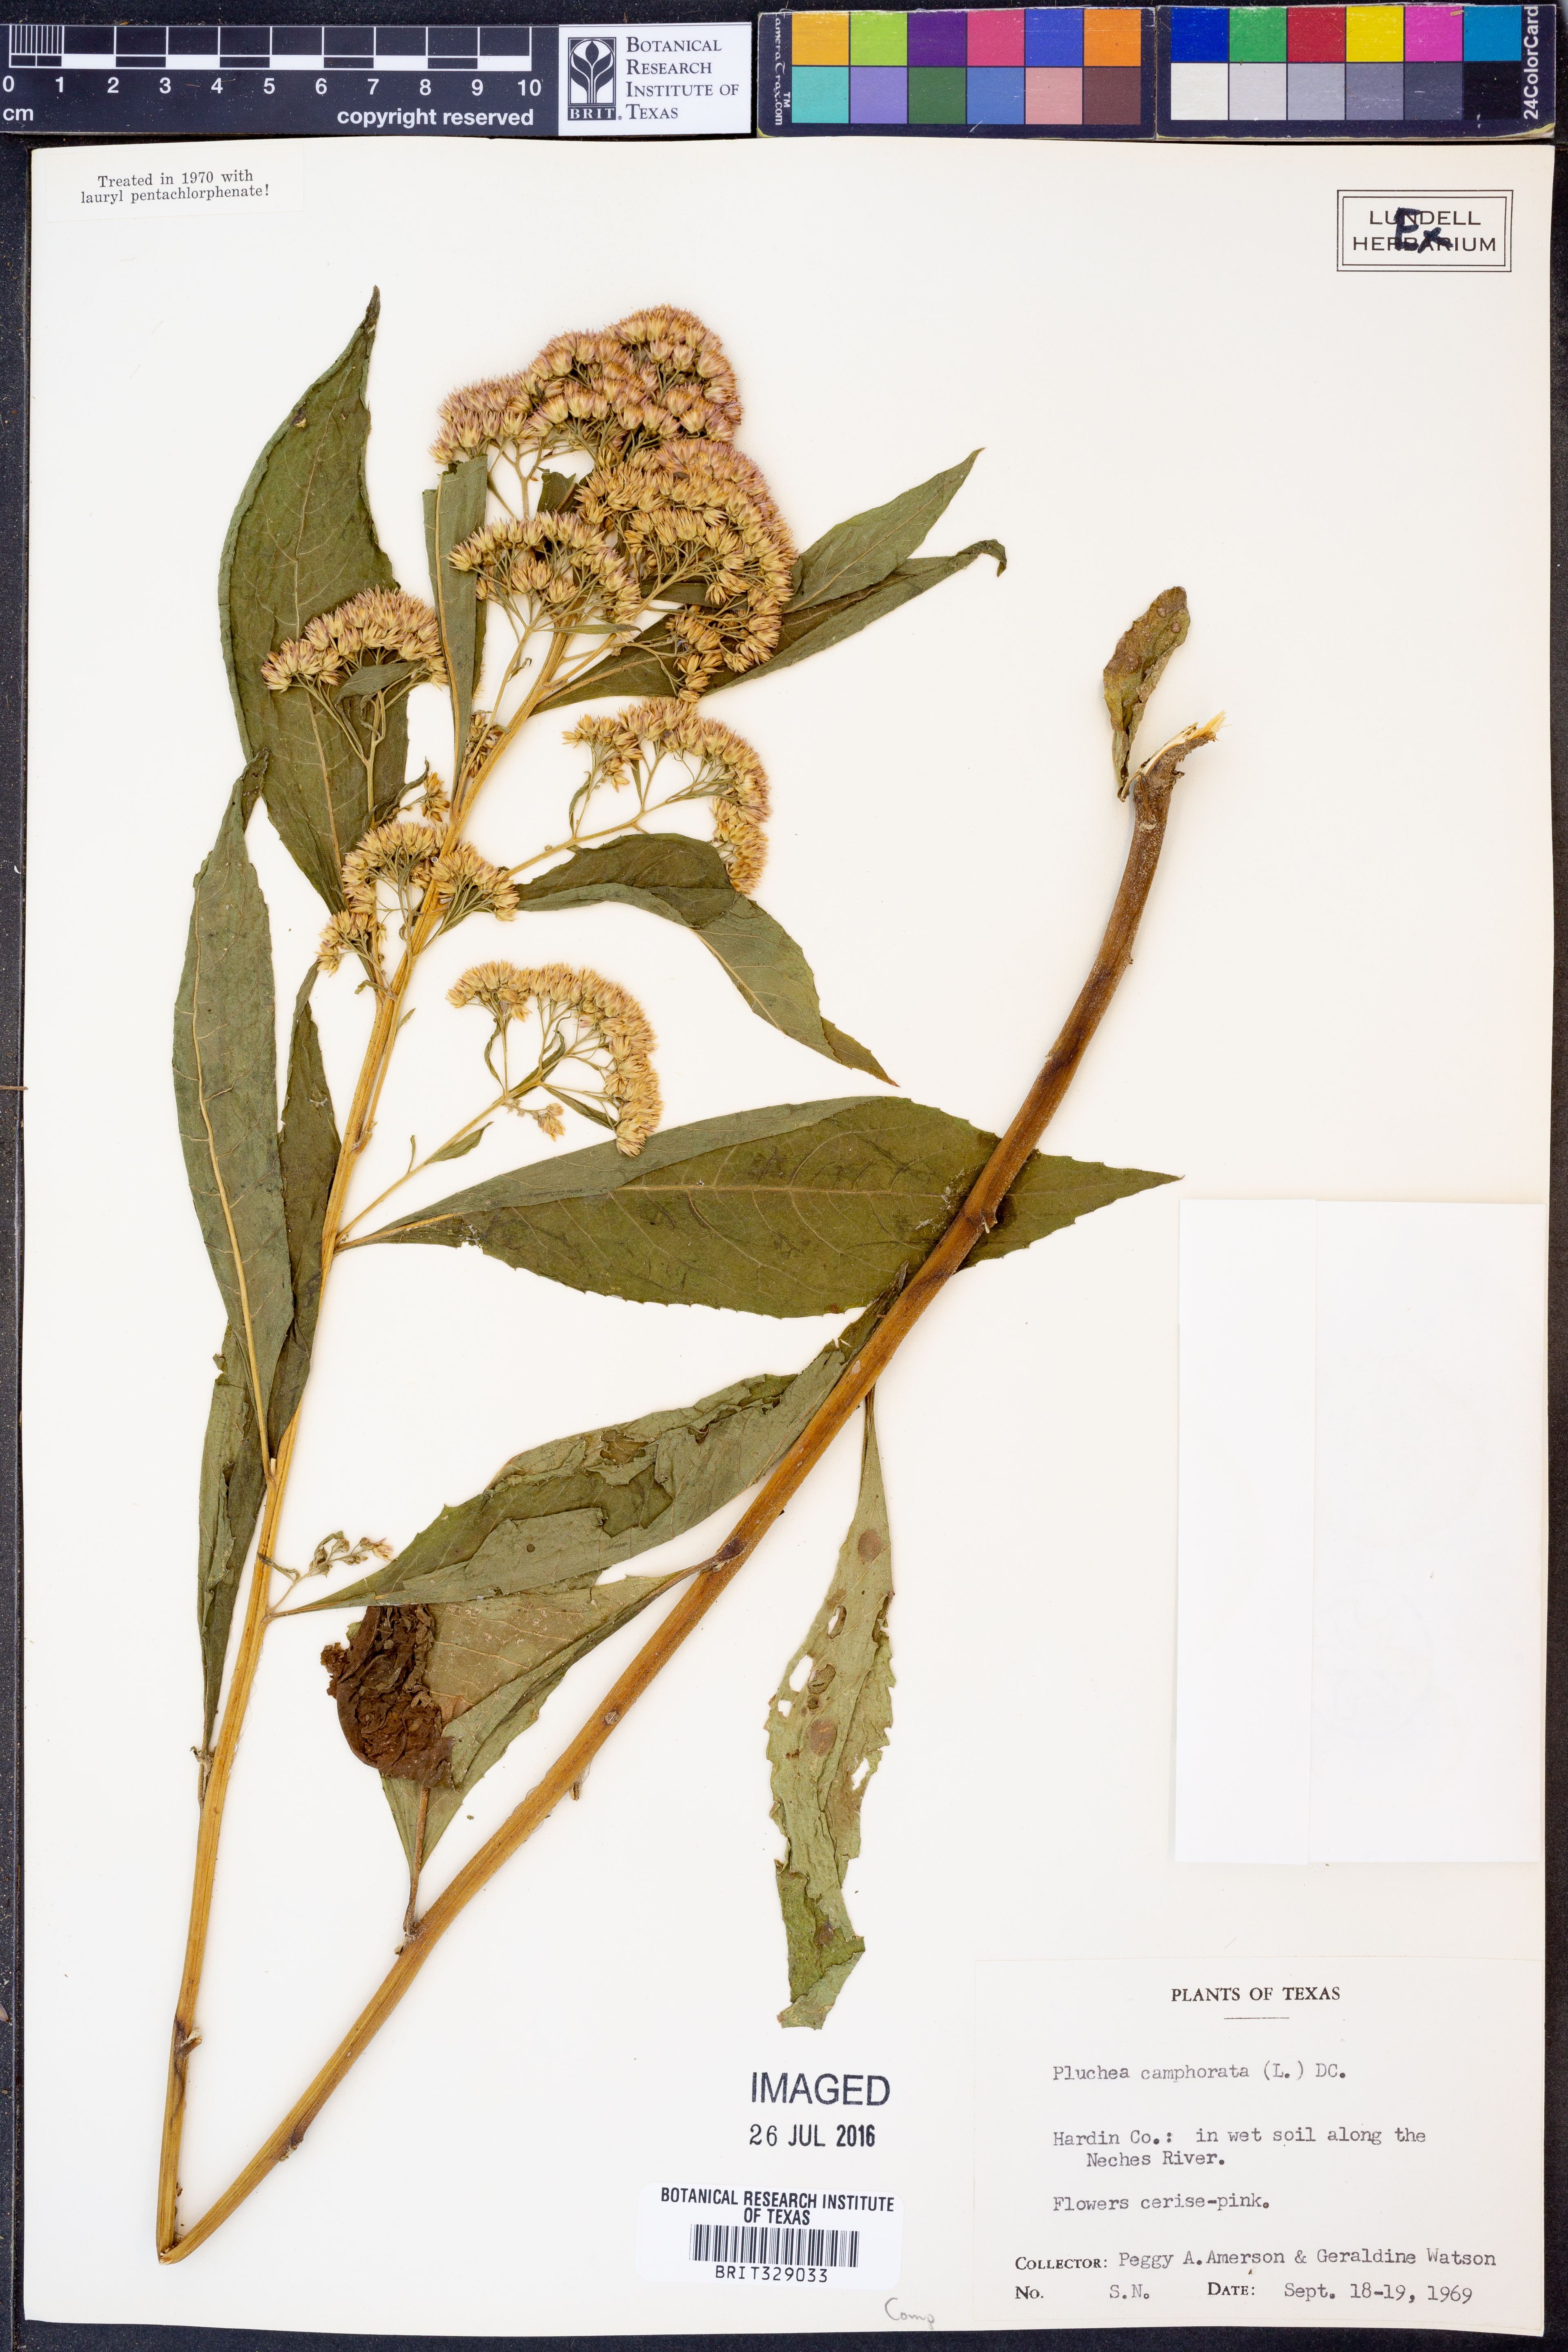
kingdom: Plantae
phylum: Tracheophyta
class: Magnoliopsida
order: Asterales
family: Asteraceae
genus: Pluchea
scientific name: Pluchea camphorata
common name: Camphor pluchea
